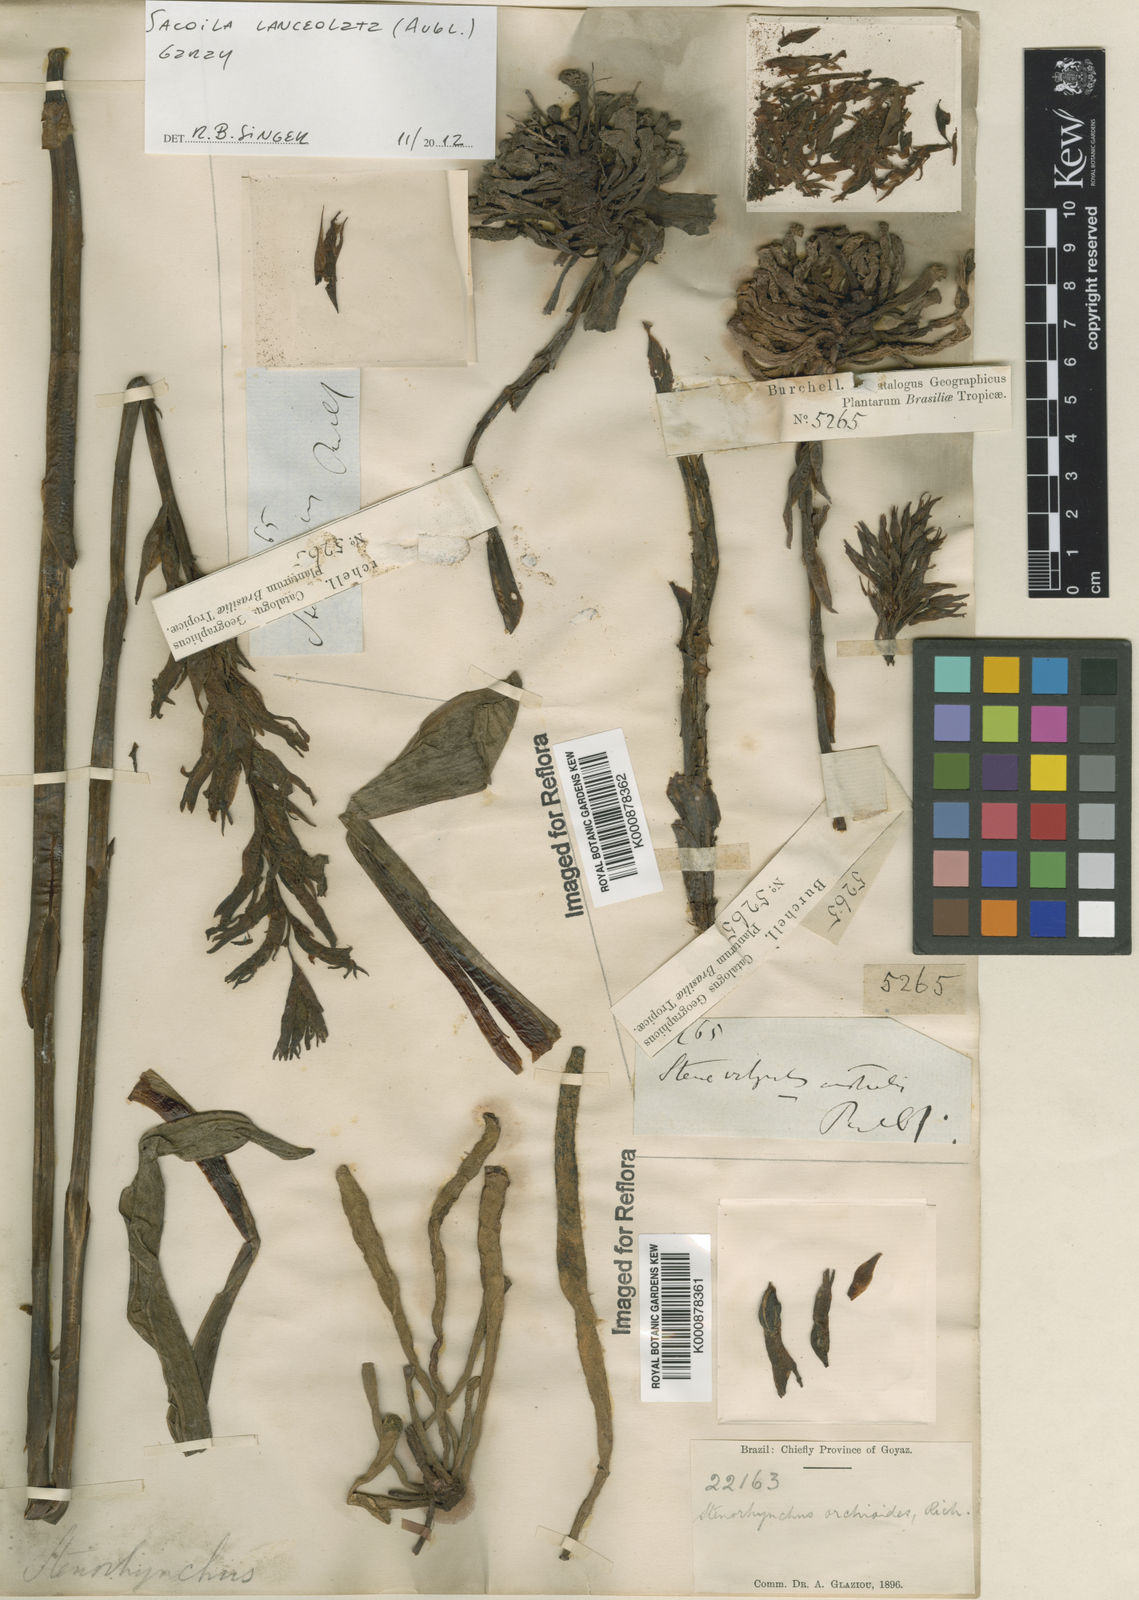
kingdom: Plantae
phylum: Tracheophyta
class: Liliopsida
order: Asparagales
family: Orchidaceae
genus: Sacoila
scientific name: Sacoila lanceolata
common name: Leafless beaked ladiestresses
